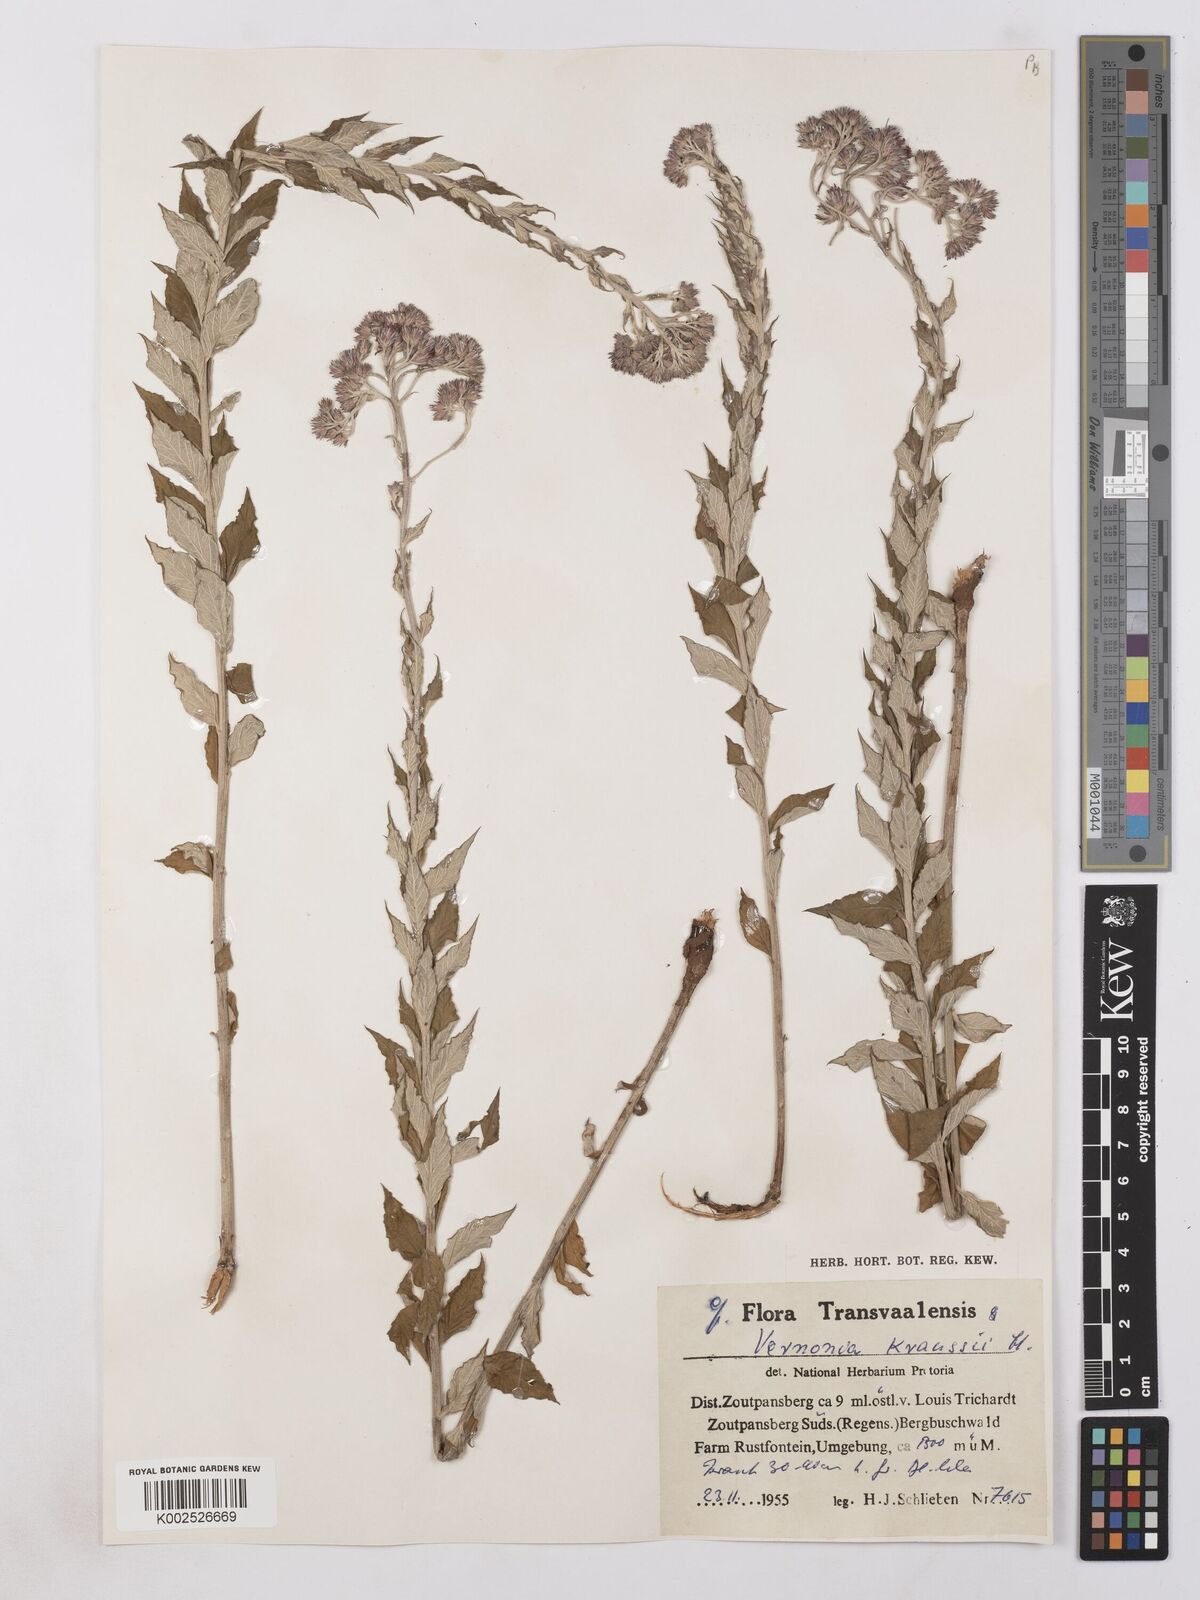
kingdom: Plantae
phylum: Tracheophyta
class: Magnoliopsida
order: Asterales
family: Asteraceae
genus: Hilliardiella
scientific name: Hilliardiella oligocephala
